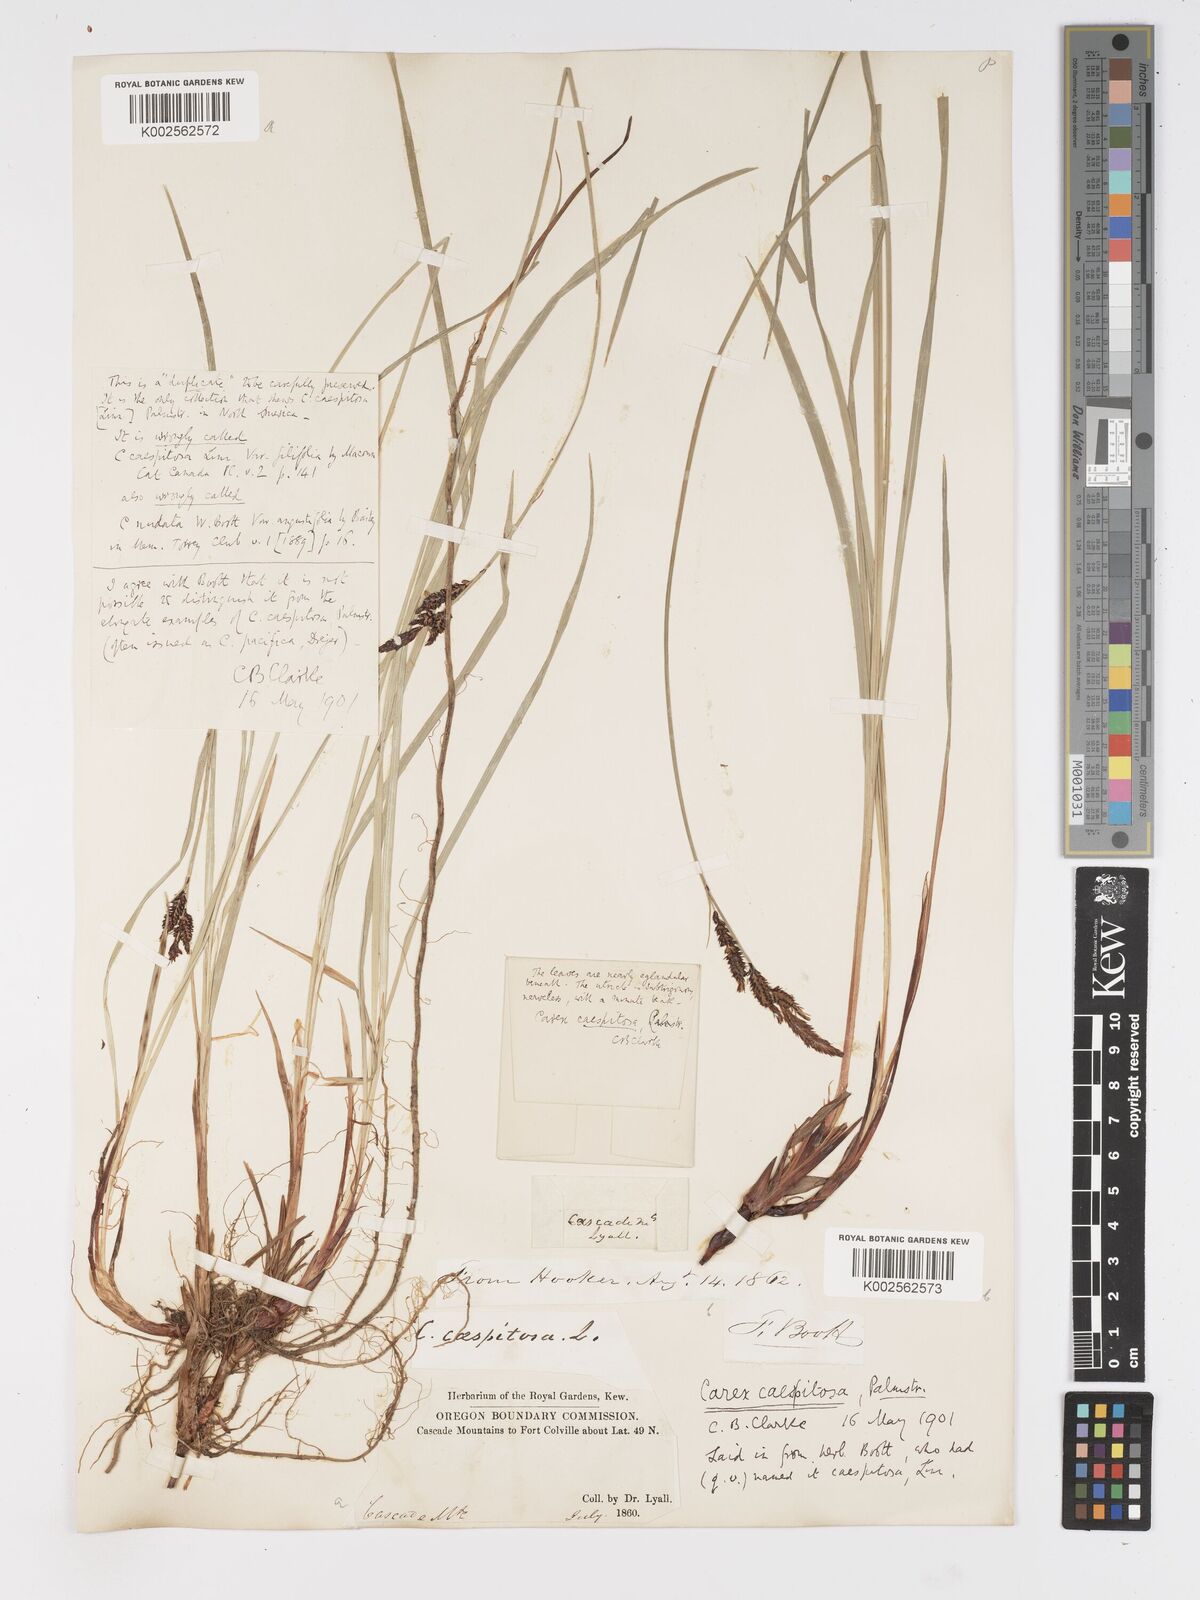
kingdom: Plantae
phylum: Tracheophyta
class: Liliopsida
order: Poales
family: Cyperaceae
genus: Carex
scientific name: Carex bigelowii
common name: Stiff sedge
